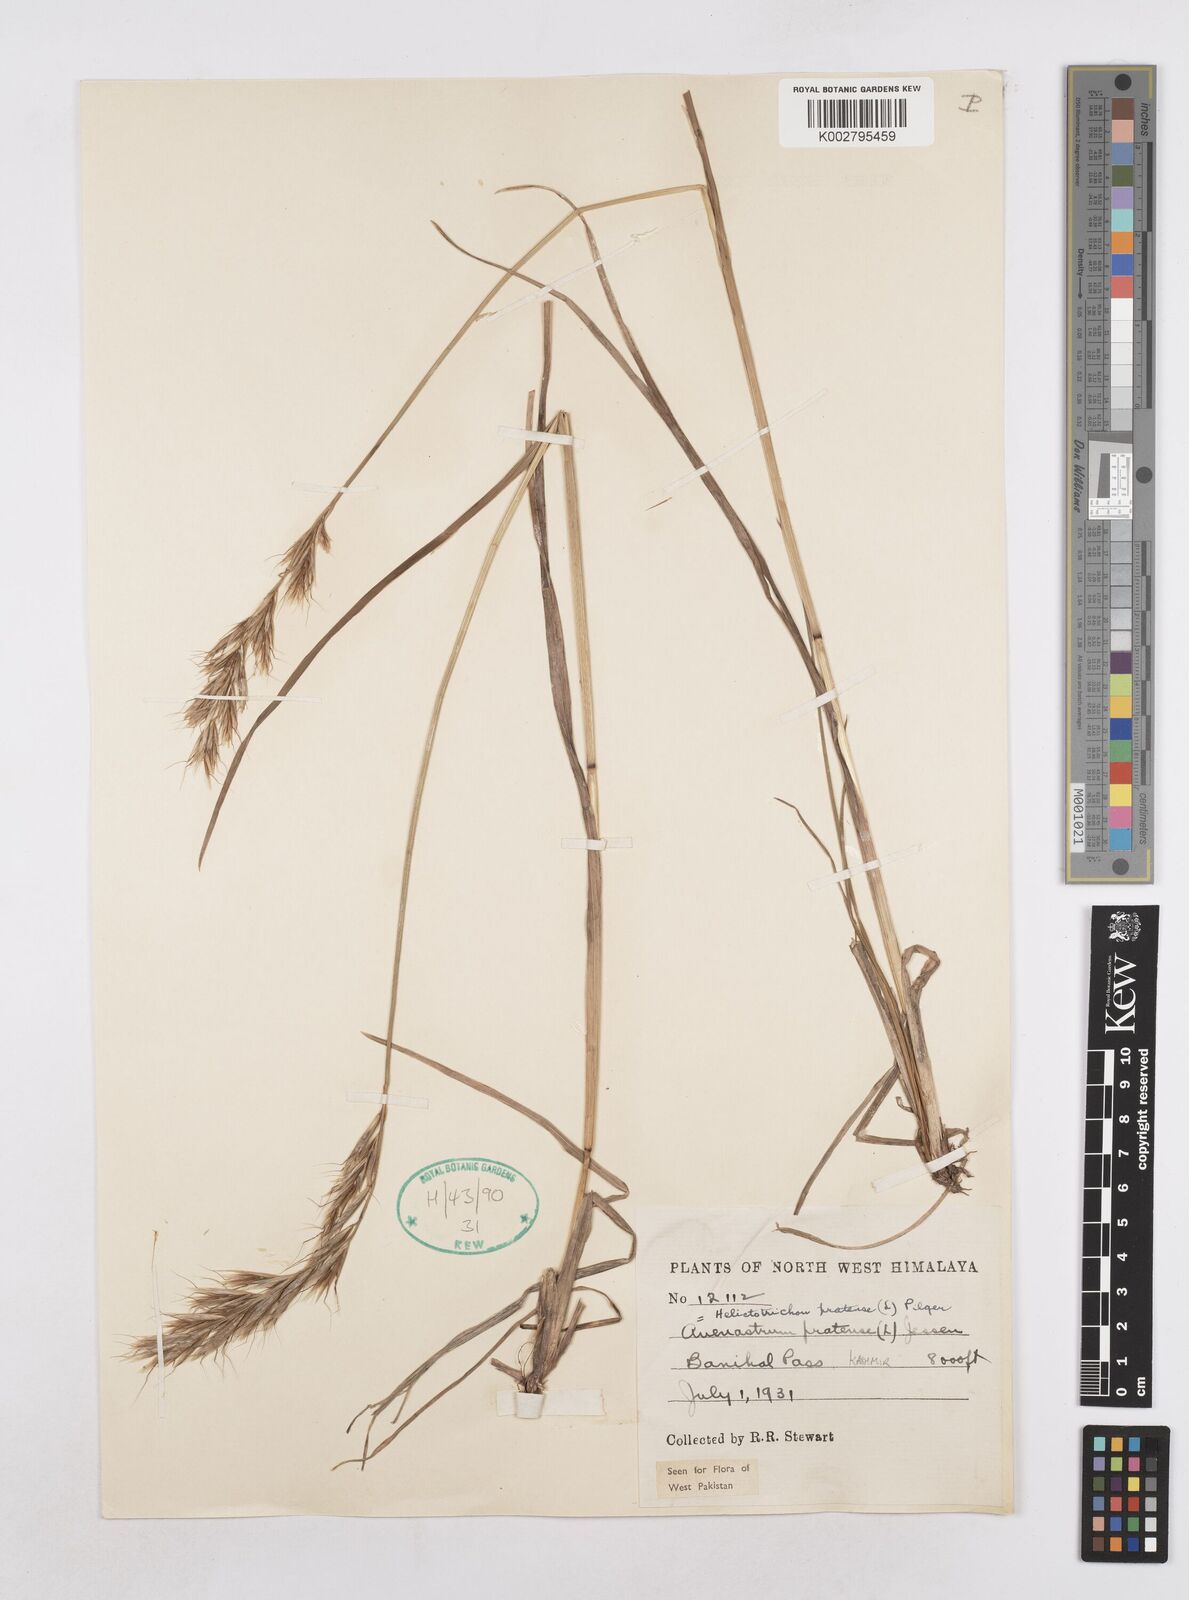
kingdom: Plantae
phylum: Tracheophyta
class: Liliopsida
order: Poales
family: Poaceae
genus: Helictochloa
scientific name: Helictochloa pratensis
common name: Meadow oat grass
